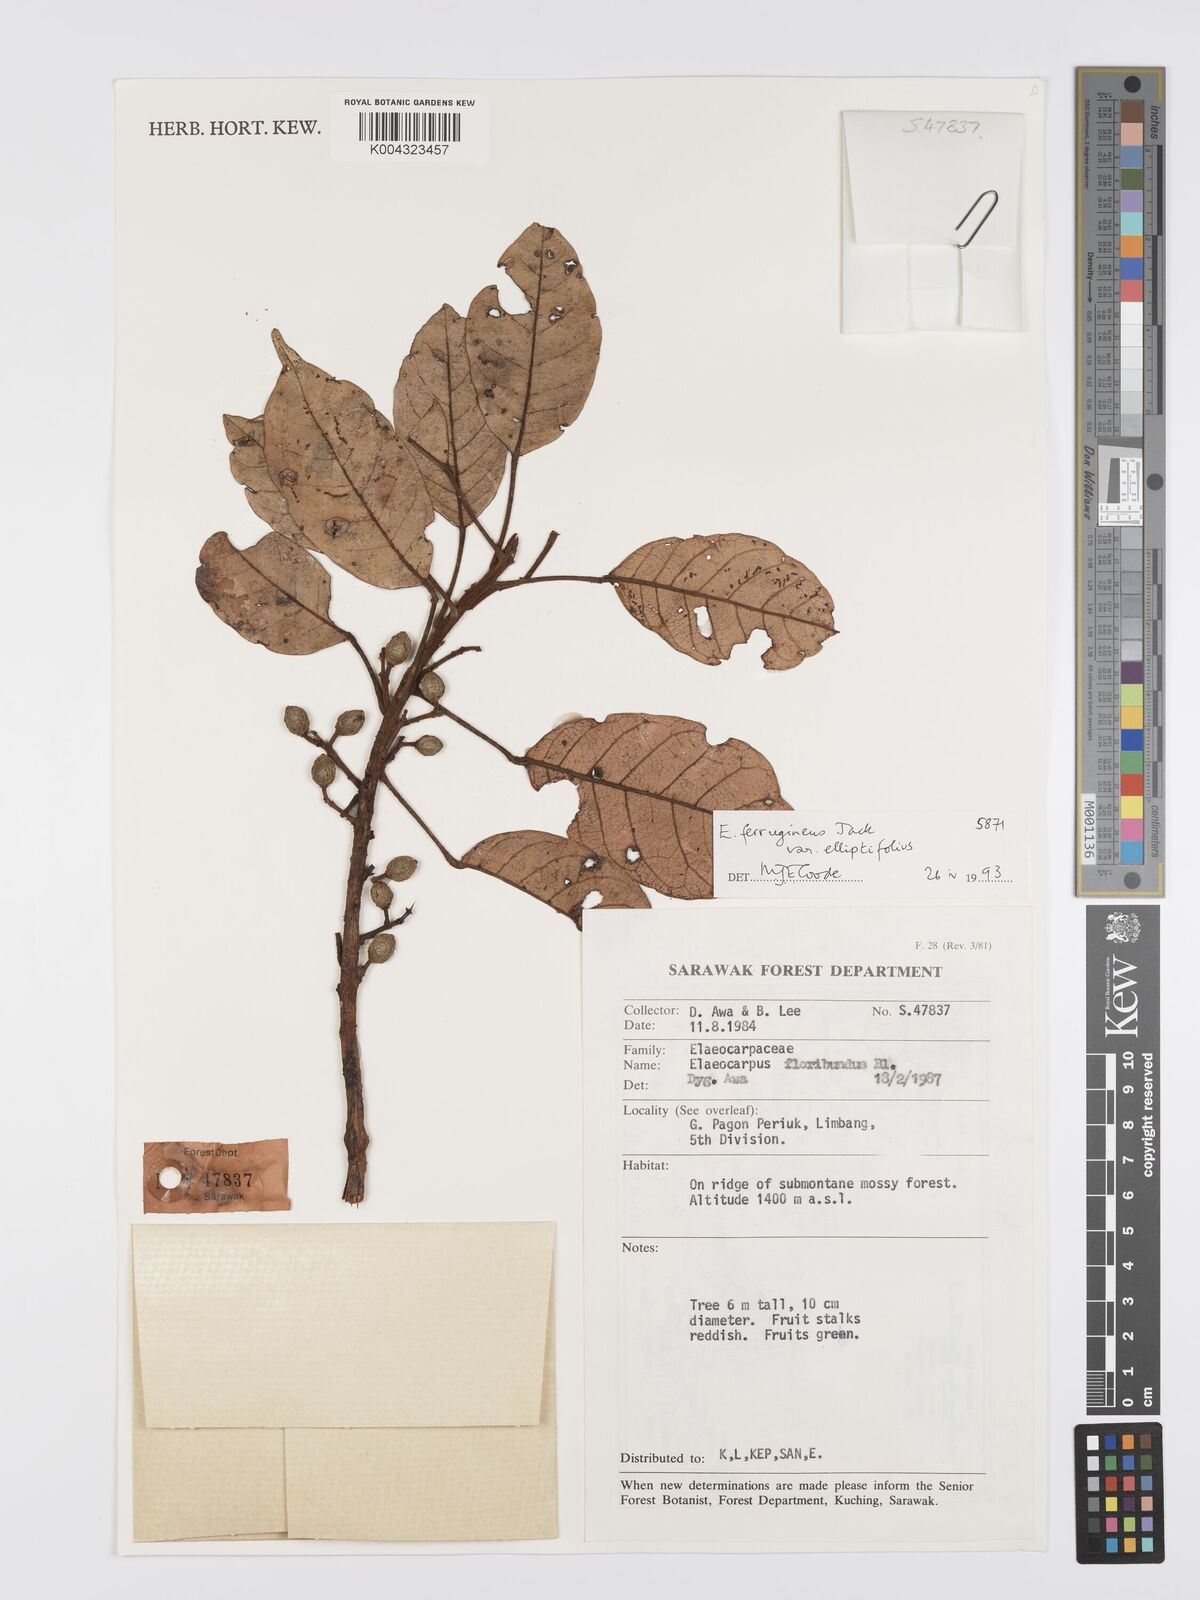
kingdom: Plantae
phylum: Tracheophyta
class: Magnoliopsida
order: Oxalidales
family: Elaeocarpaceae
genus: Elaeocarpus
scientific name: Elaeocarpus ferrugineus
